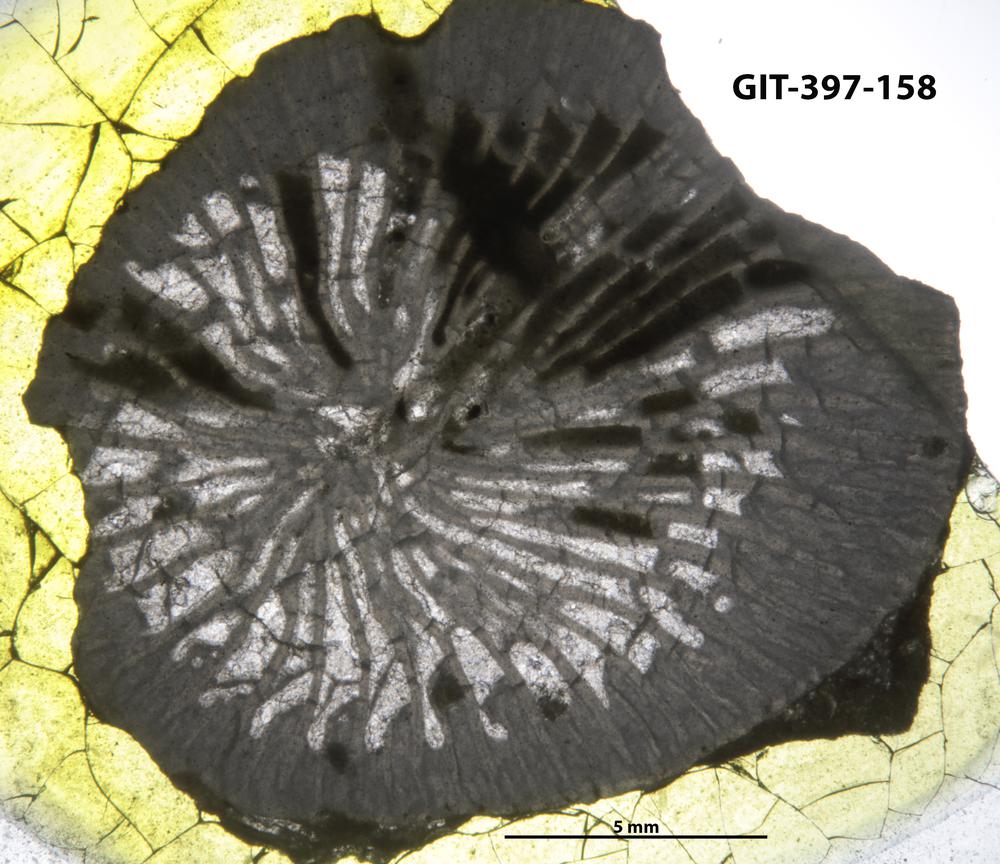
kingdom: Animalia
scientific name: Animalia
